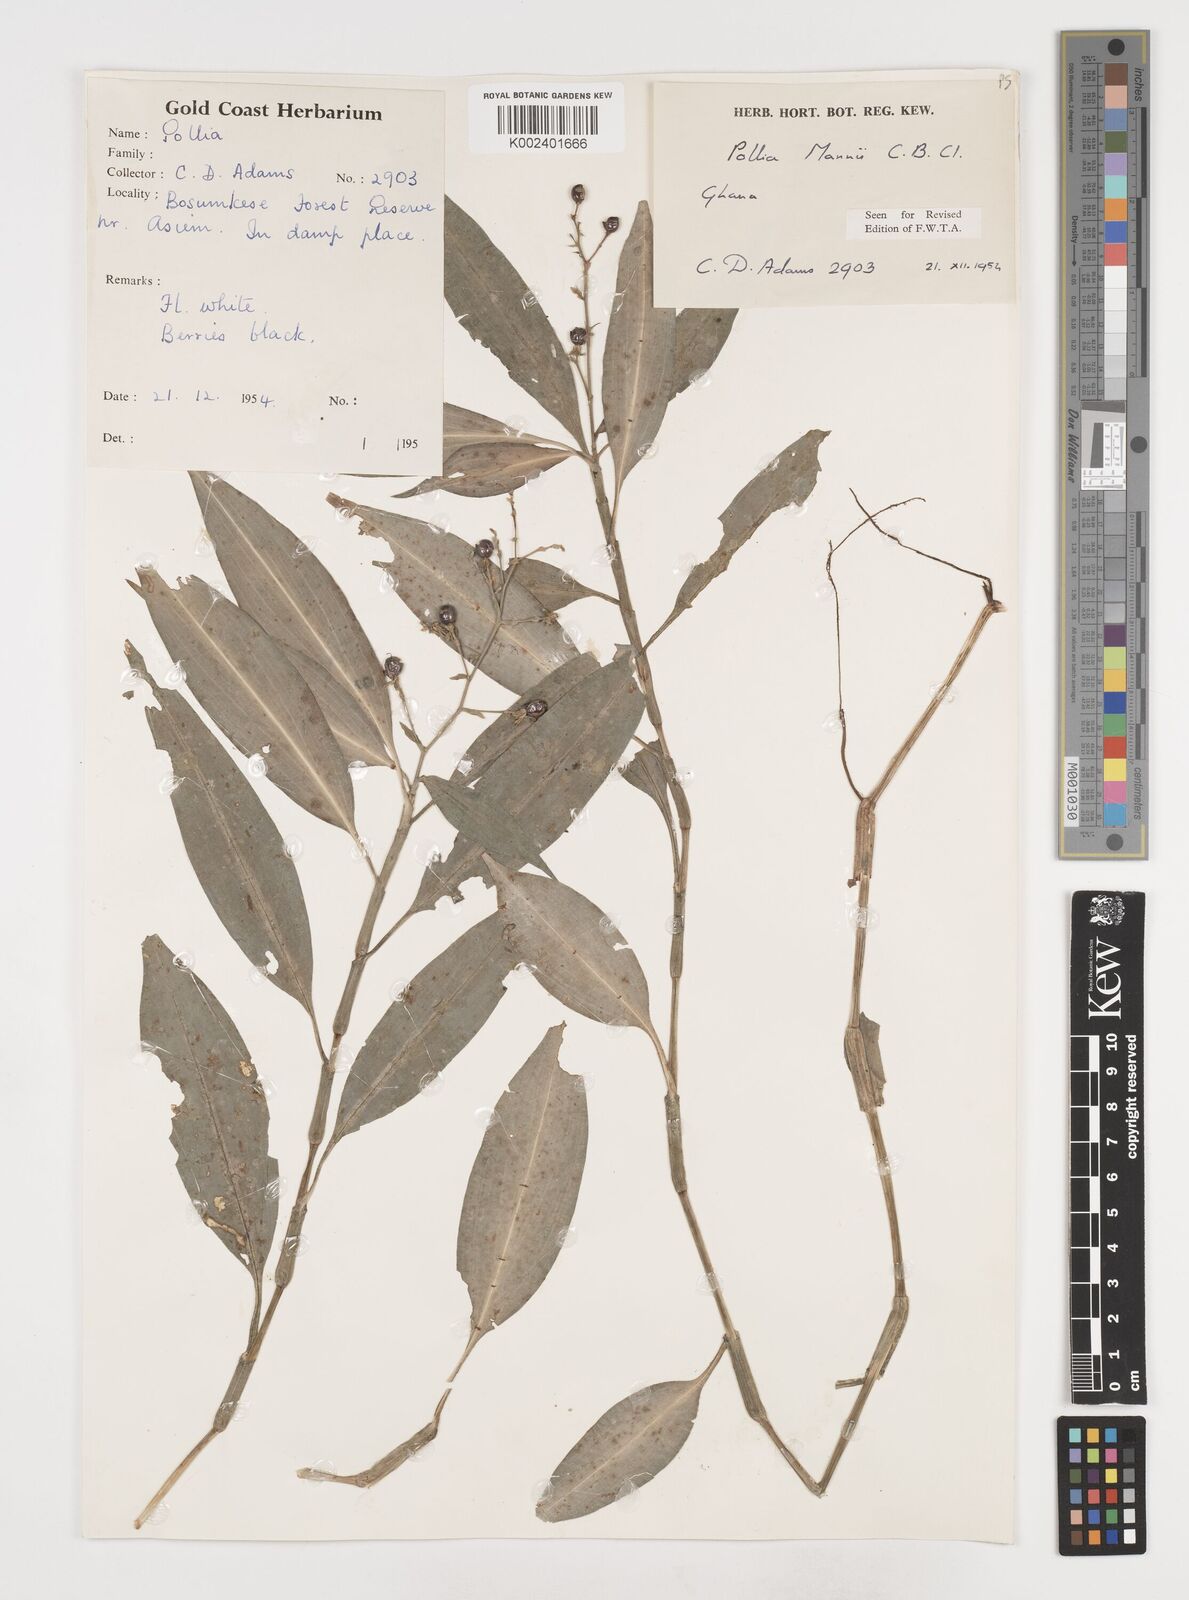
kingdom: Plantae
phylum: Tracheophyta
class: Liliopsida
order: Commelinales
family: Commelinaceae
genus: Pollia
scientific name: Pollia mannii
